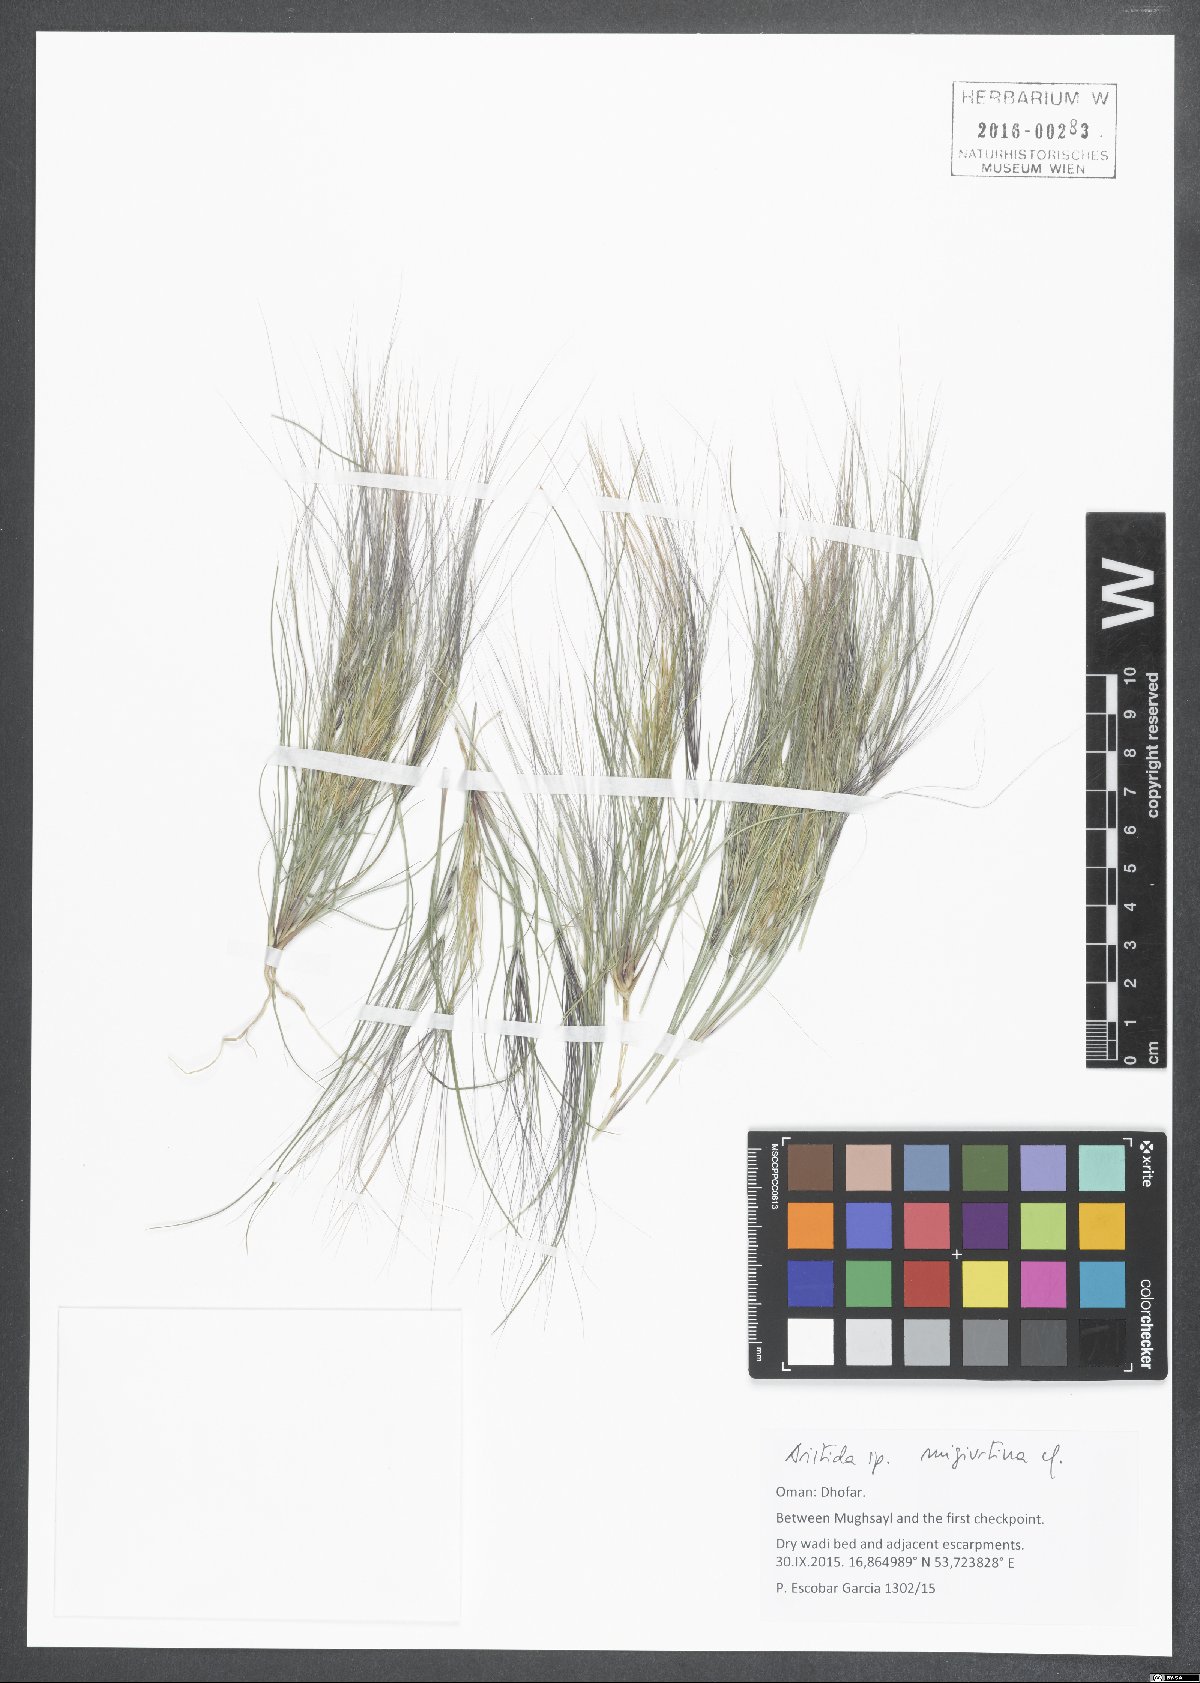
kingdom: Plantae
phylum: Tracheophyta
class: Liliopsida
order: Poales
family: Poaceae
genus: Aristida
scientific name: Aristida migiurtina
